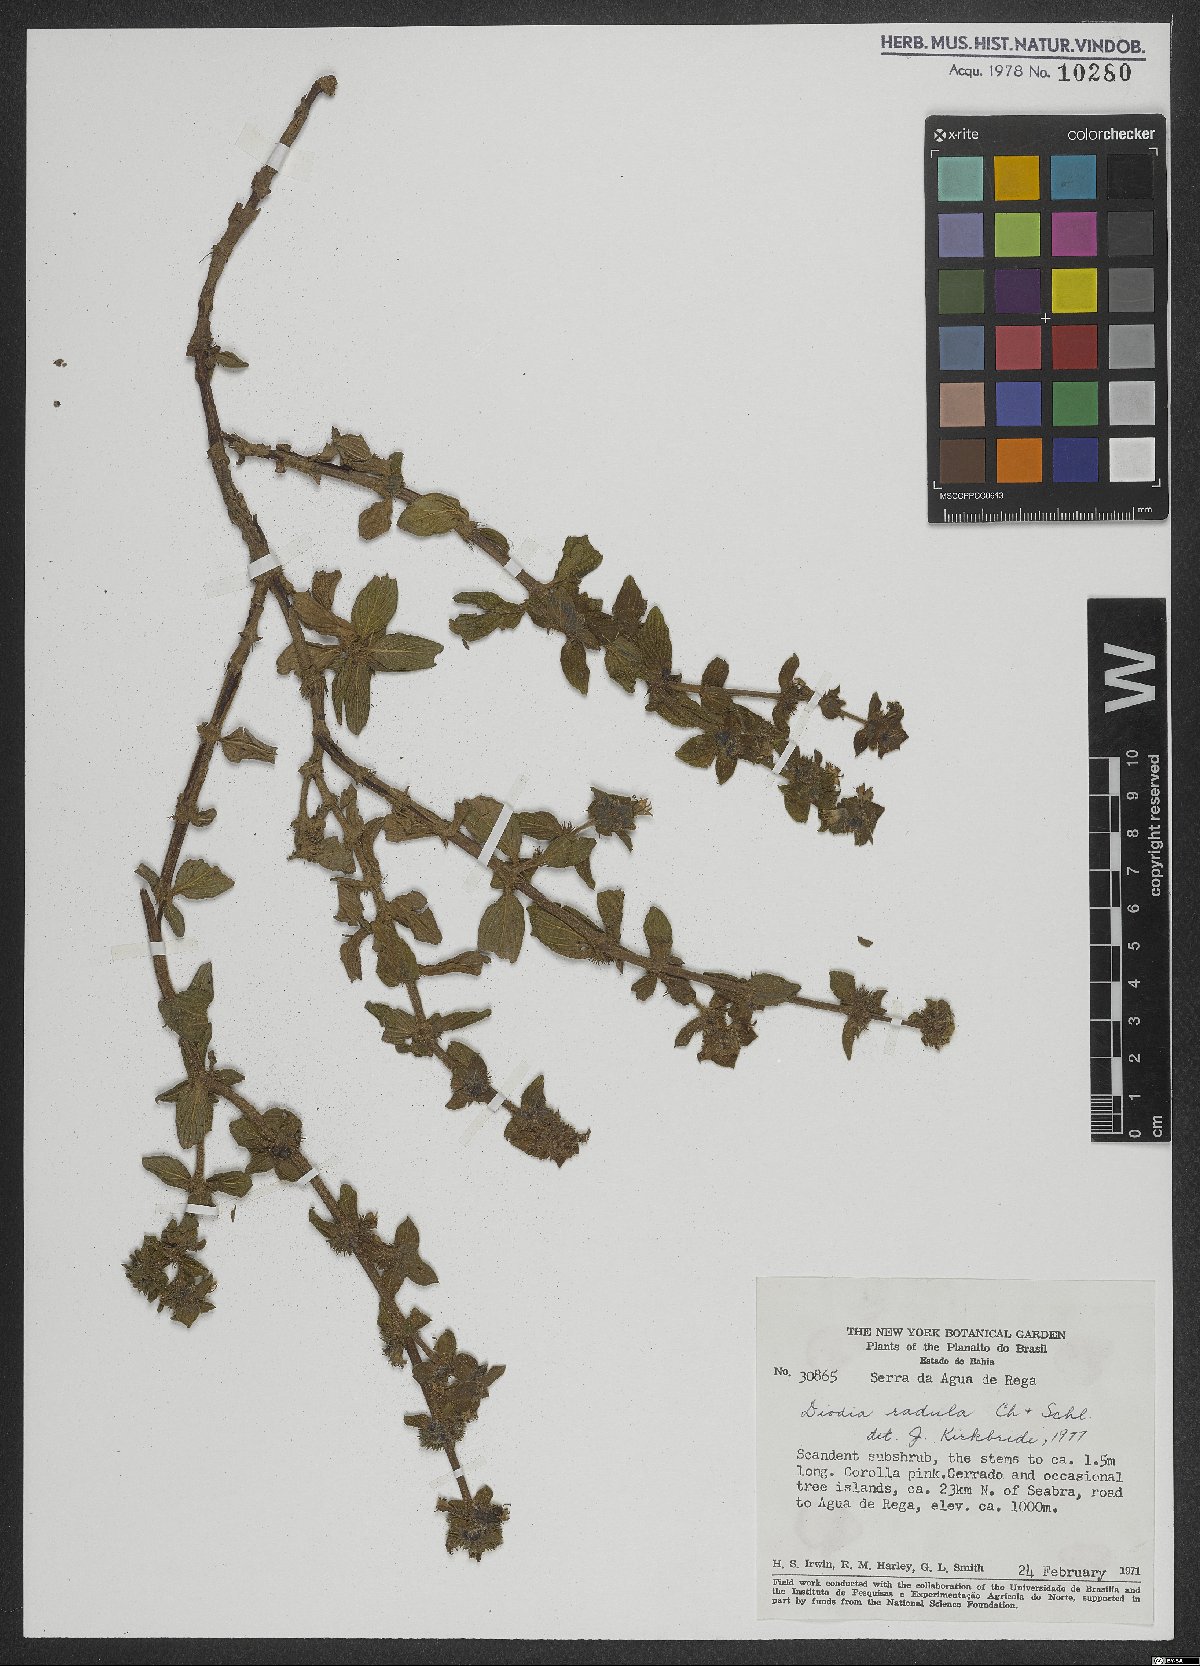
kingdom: Plantae
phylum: Tracheophyta
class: Magnoliopsida
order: Gentianales
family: Rubiaceae
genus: Hexasepalum
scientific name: Hexasepalum radulum
